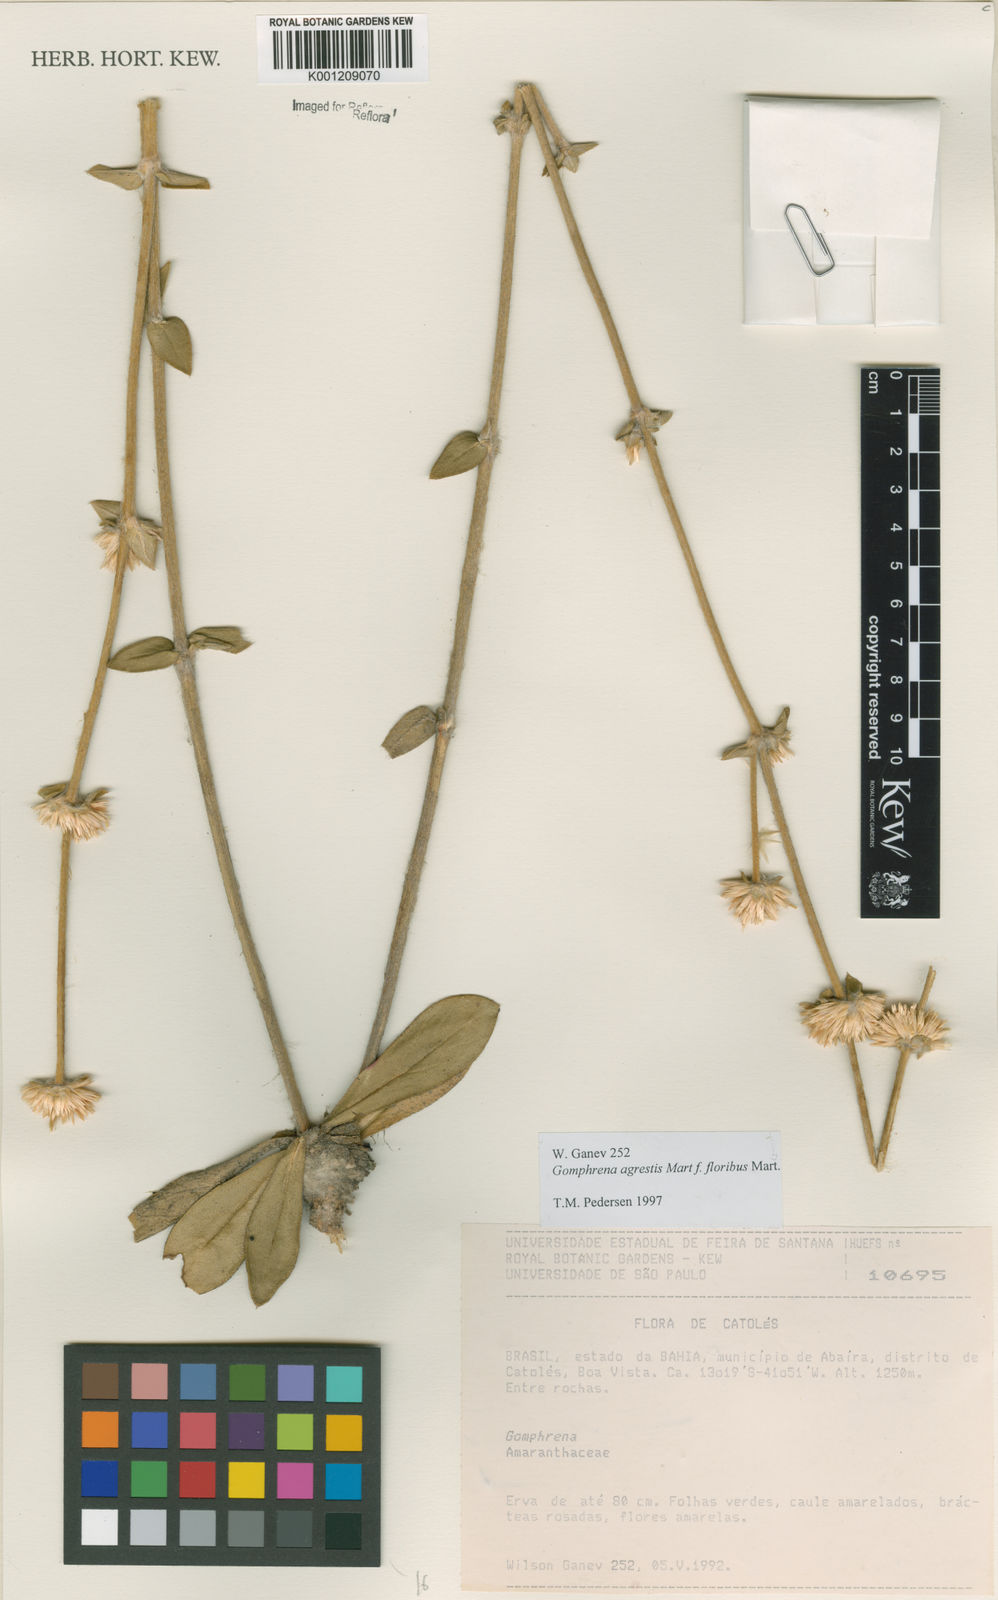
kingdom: Plantae
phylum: Tracheophyta
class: Magnoliopsida
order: Caryophyllales
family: Amaranthaceae
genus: Gomphrena
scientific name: Gomphrena agrestis
